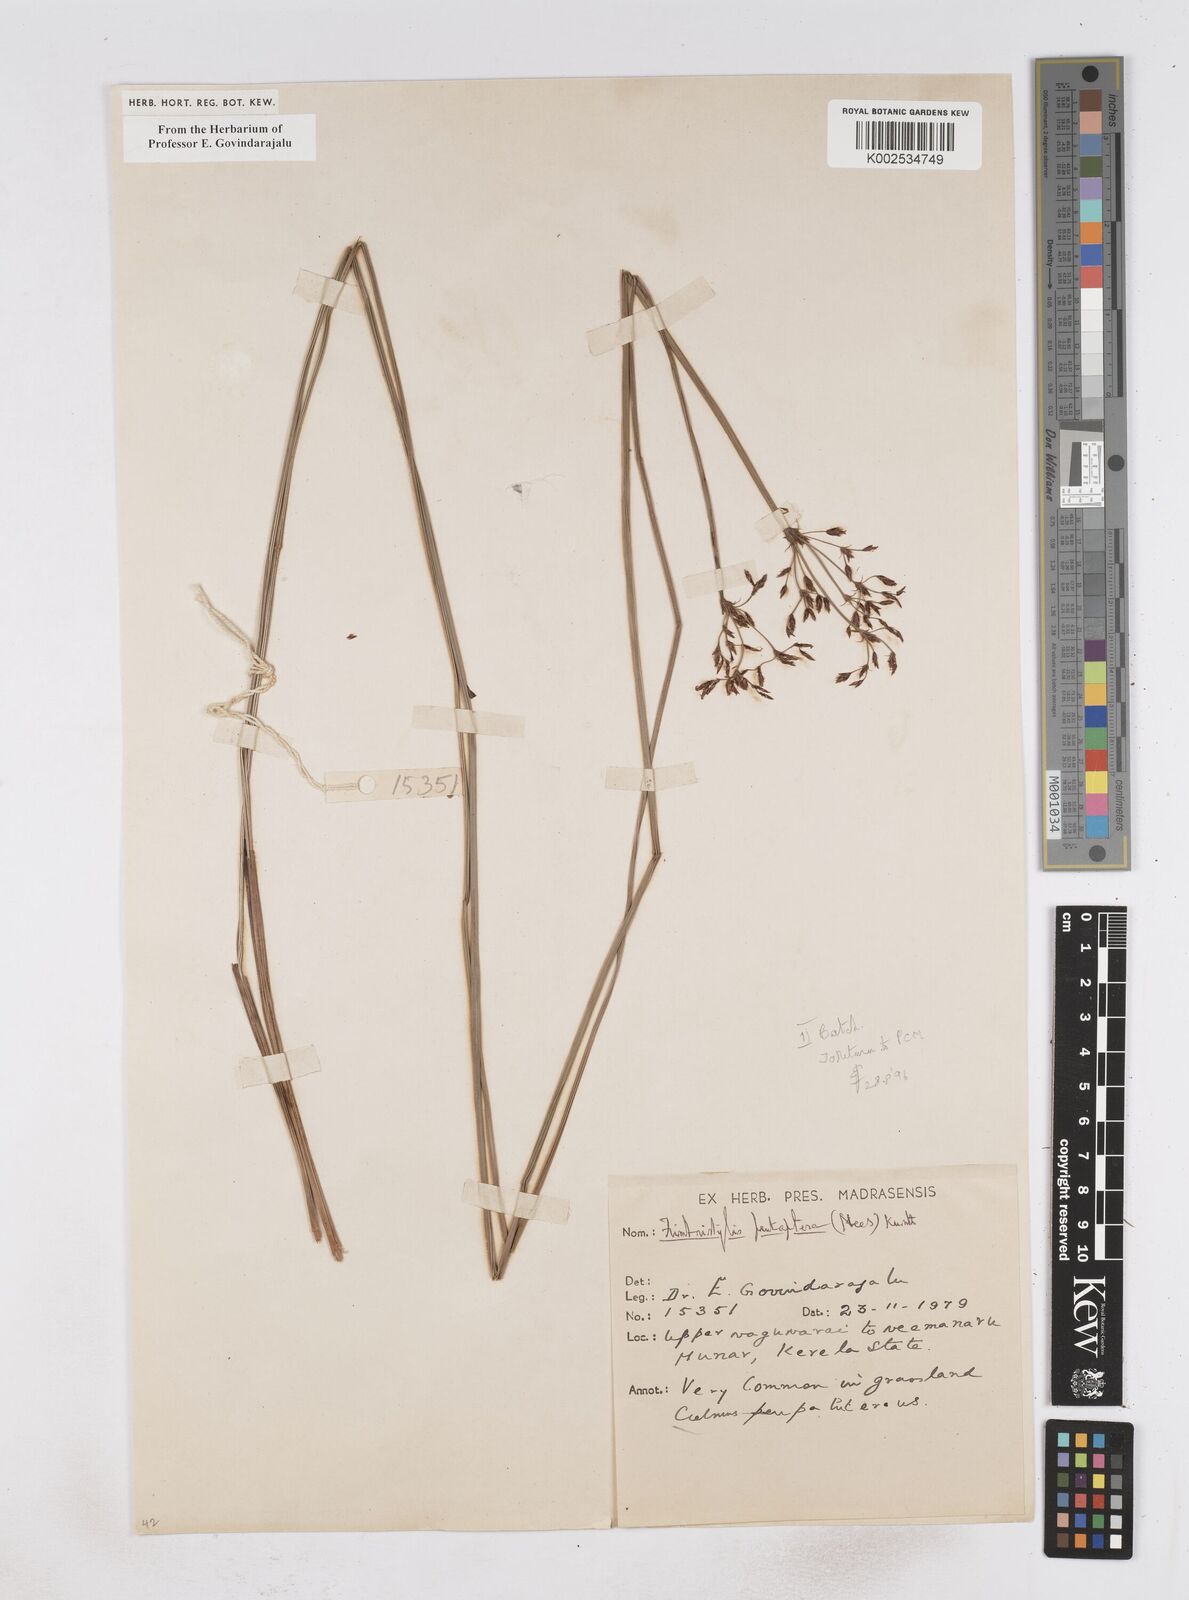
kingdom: Plantae
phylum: Tracheophyta
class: Liliopsida
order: Poales
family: Cyperaceae
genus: Fimbristylis
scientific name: Fimbristylis salbundia
